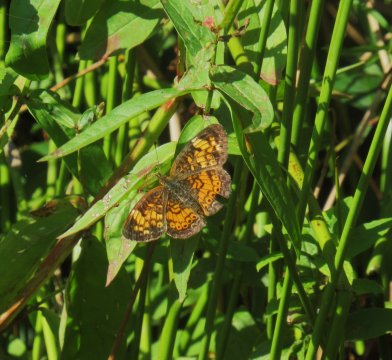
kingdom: Animalia
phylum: Arthropoda
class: Insecta
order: Lepidoptera
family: Nymphalidae
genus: Phyciodes
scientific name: Phyciodes tharos
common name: Pearl Crescent
